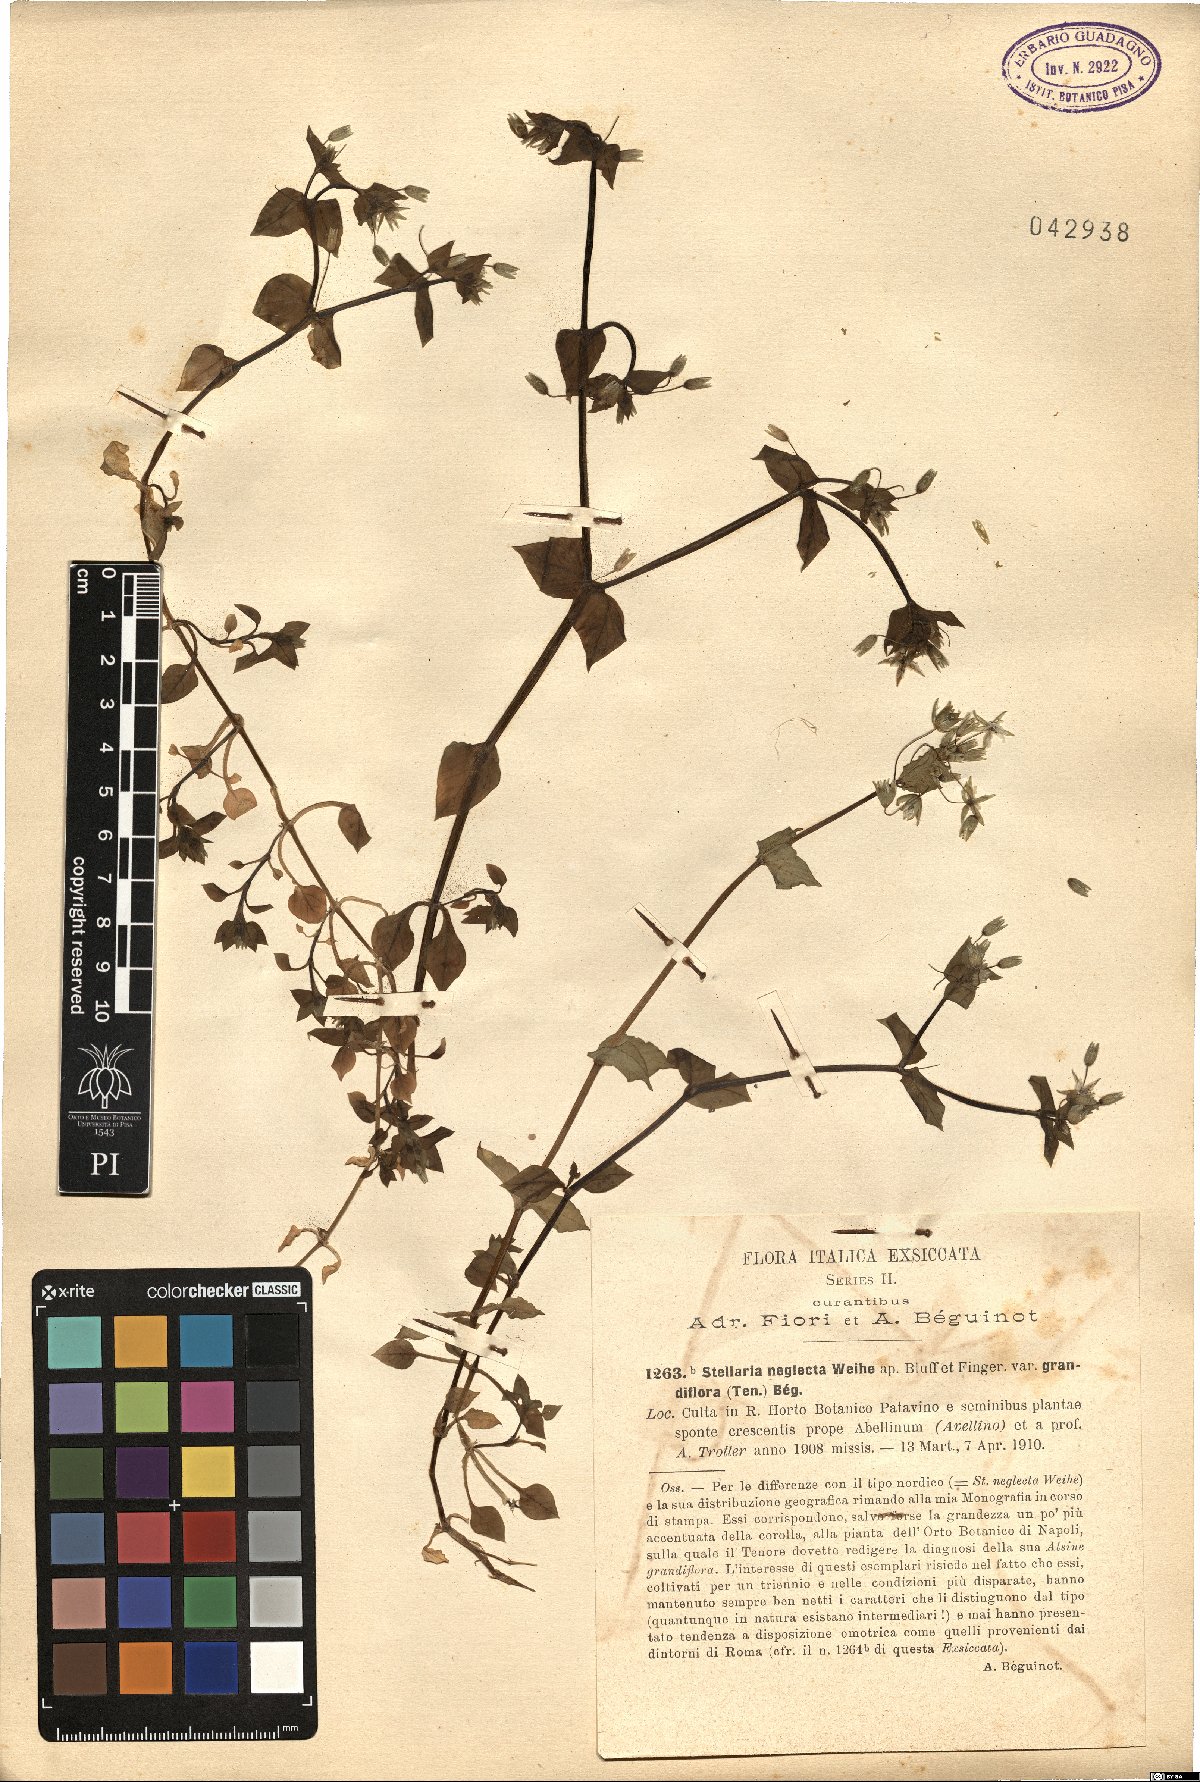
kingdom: Plantae
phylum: Tracheophyta
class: Magnoliopsida
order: Caryophyllales
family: Caryophyllaceae
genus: Stellaria
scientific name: Stellaria neglecta
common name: Greater chickweed
